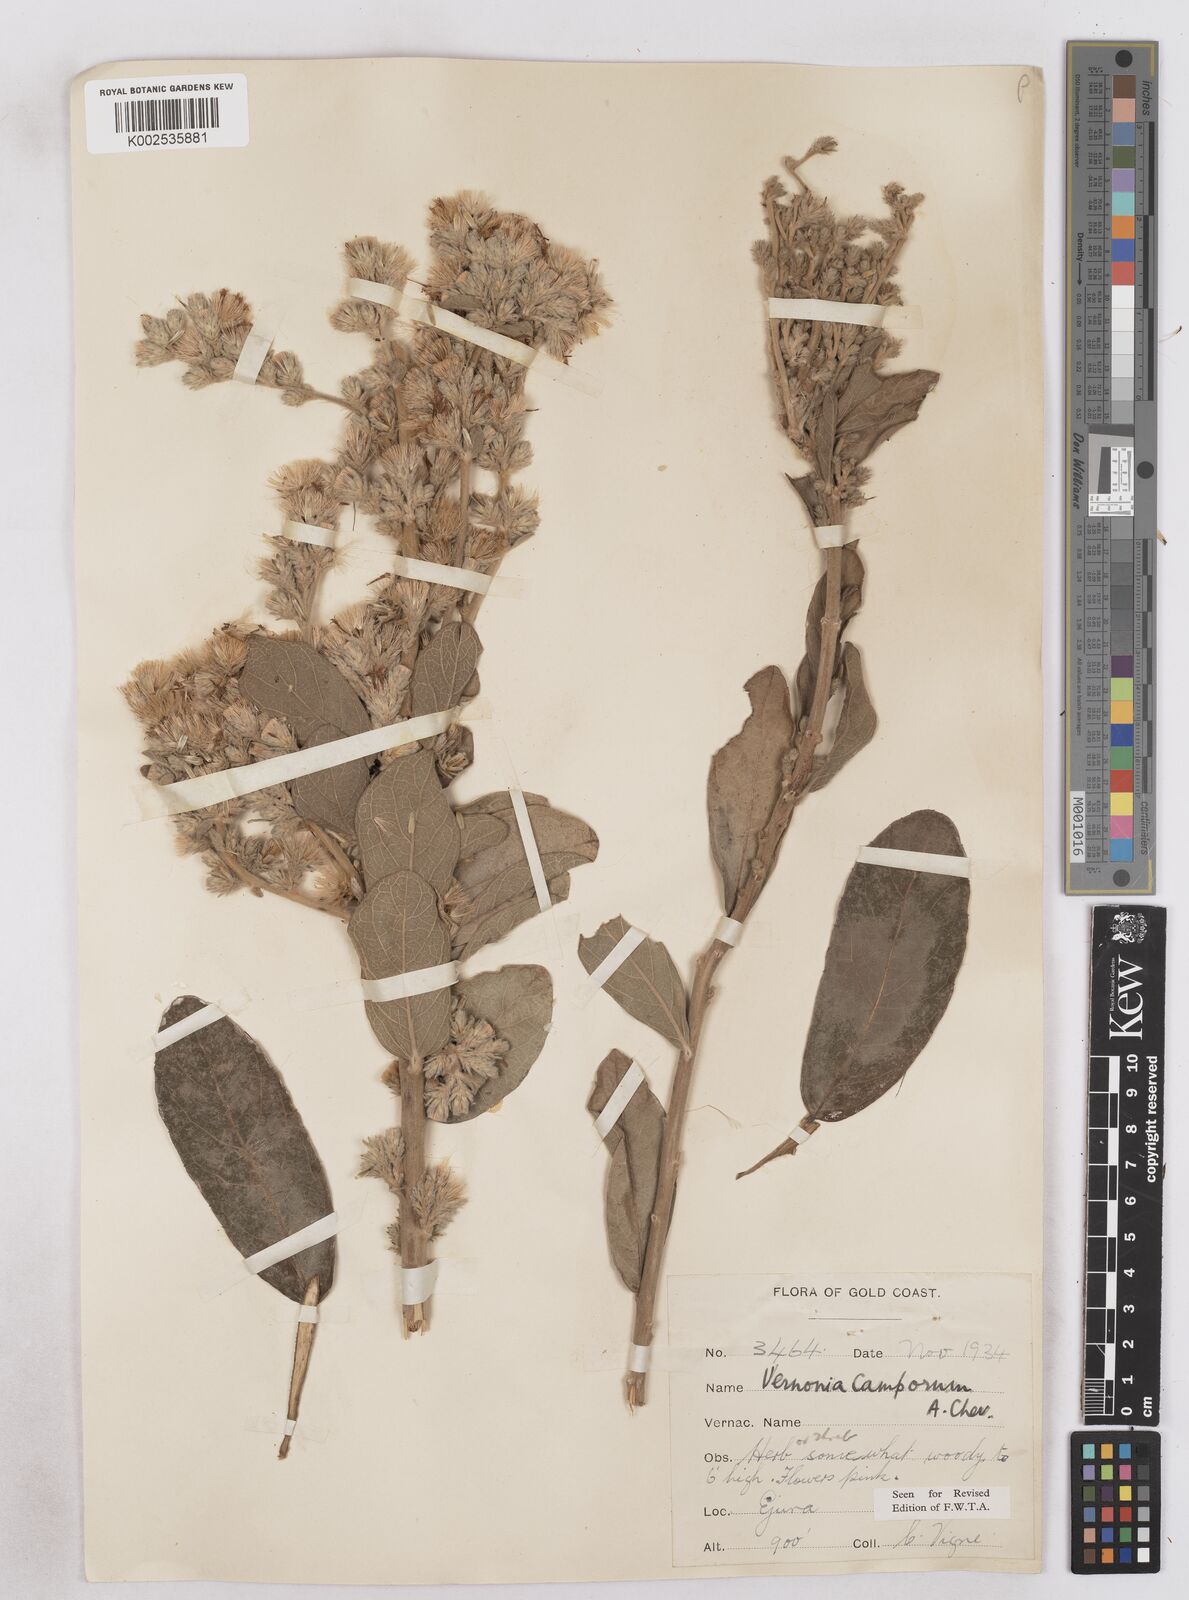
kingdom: Plantae
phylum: Tracheophyta
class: Magnoliopsida
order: Asterales
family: Asteraceae
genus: Vernoniastrum
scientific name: Vernoniastrum camporum
